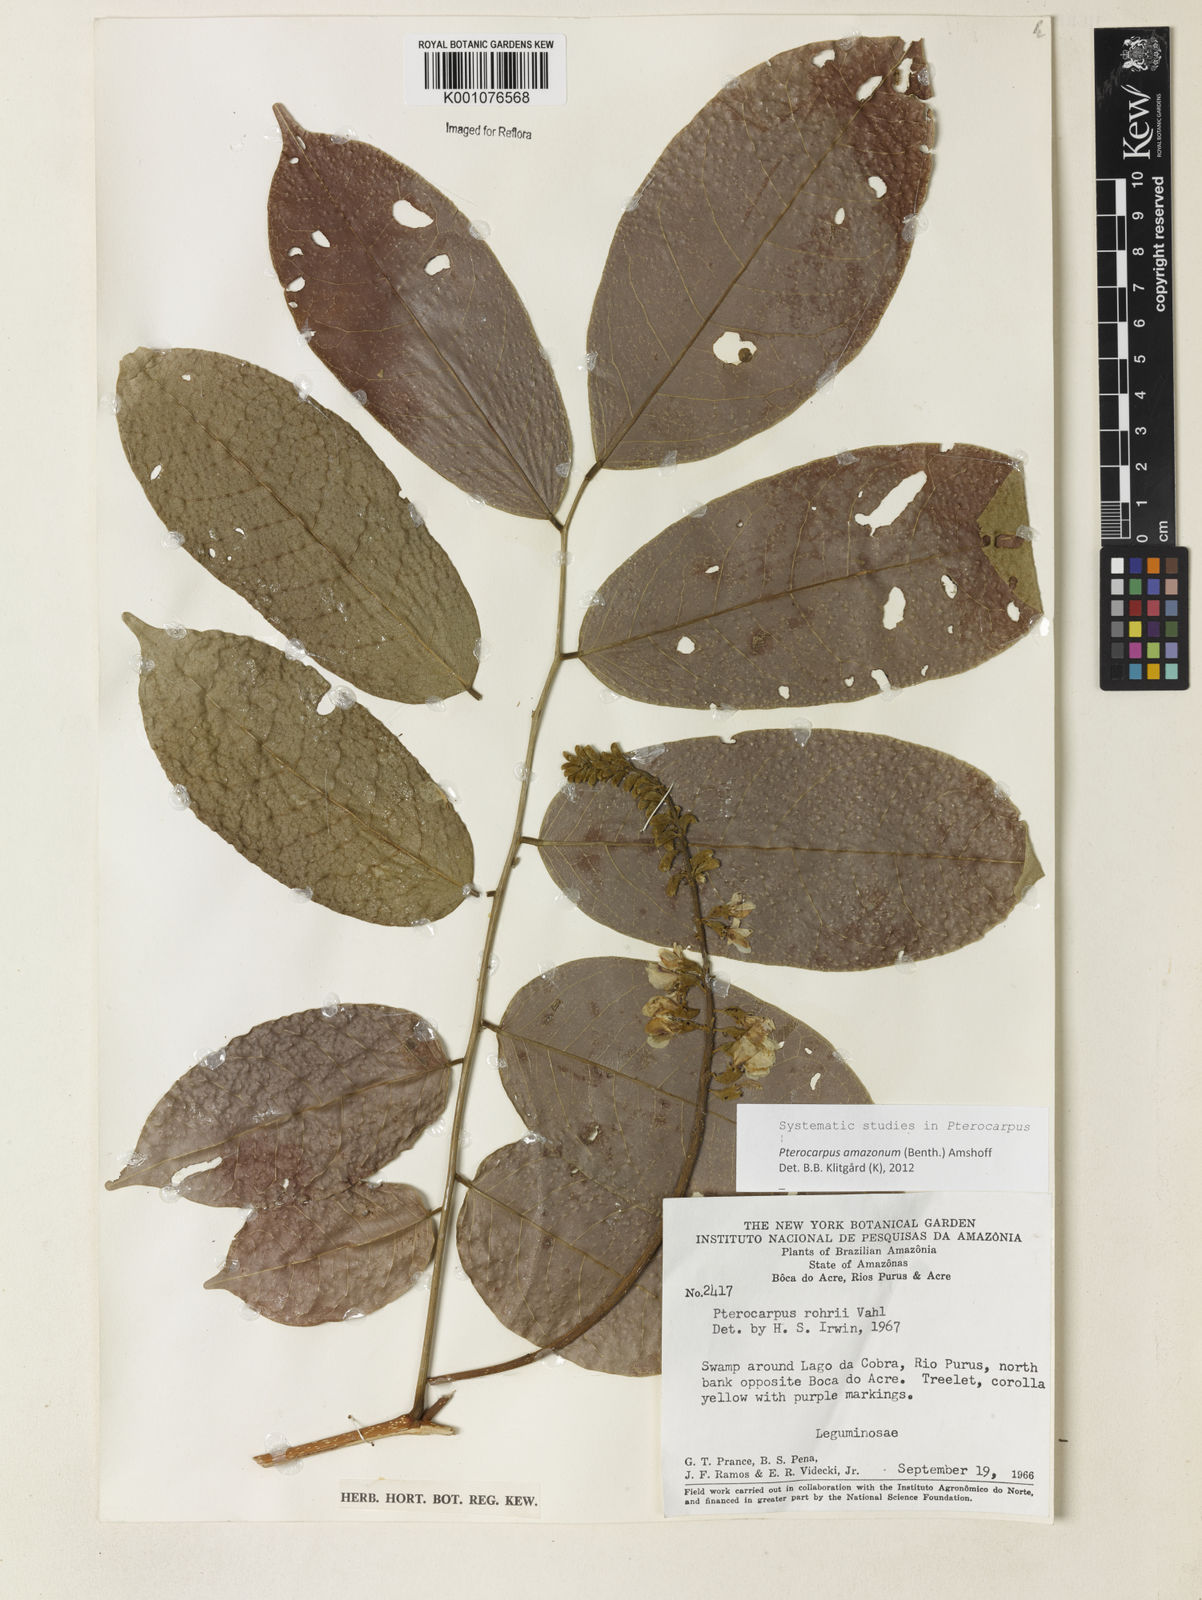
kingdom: Plantae
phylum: Tracheophyta
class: Magnoliopsida
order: Fabales
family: Fabaceae
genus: Pterocarpus
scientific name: Pterocarpus amazonum
